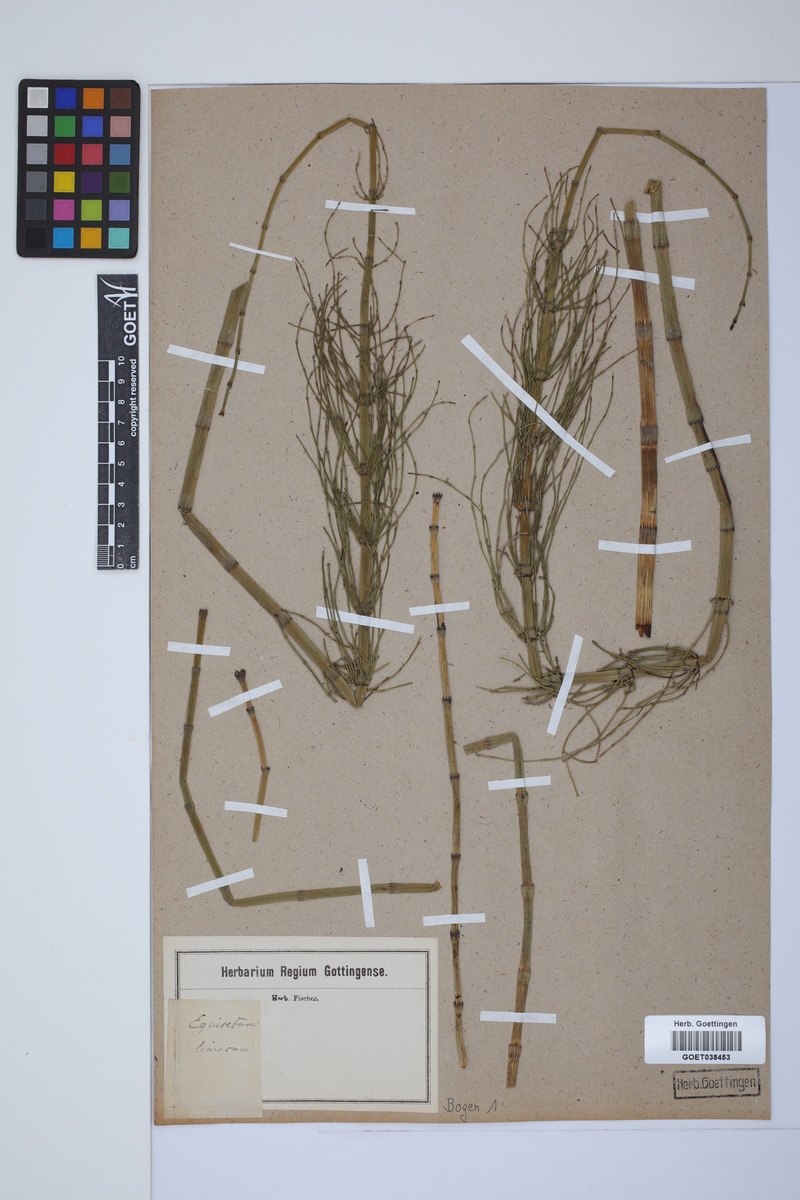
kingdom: Plantae
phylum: Tracheophyta
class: Polypodiopsida
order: Equisetales
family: Equisetaceae
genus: Equisetum
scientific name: Equisetum fluviatile
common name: Water horsetail
